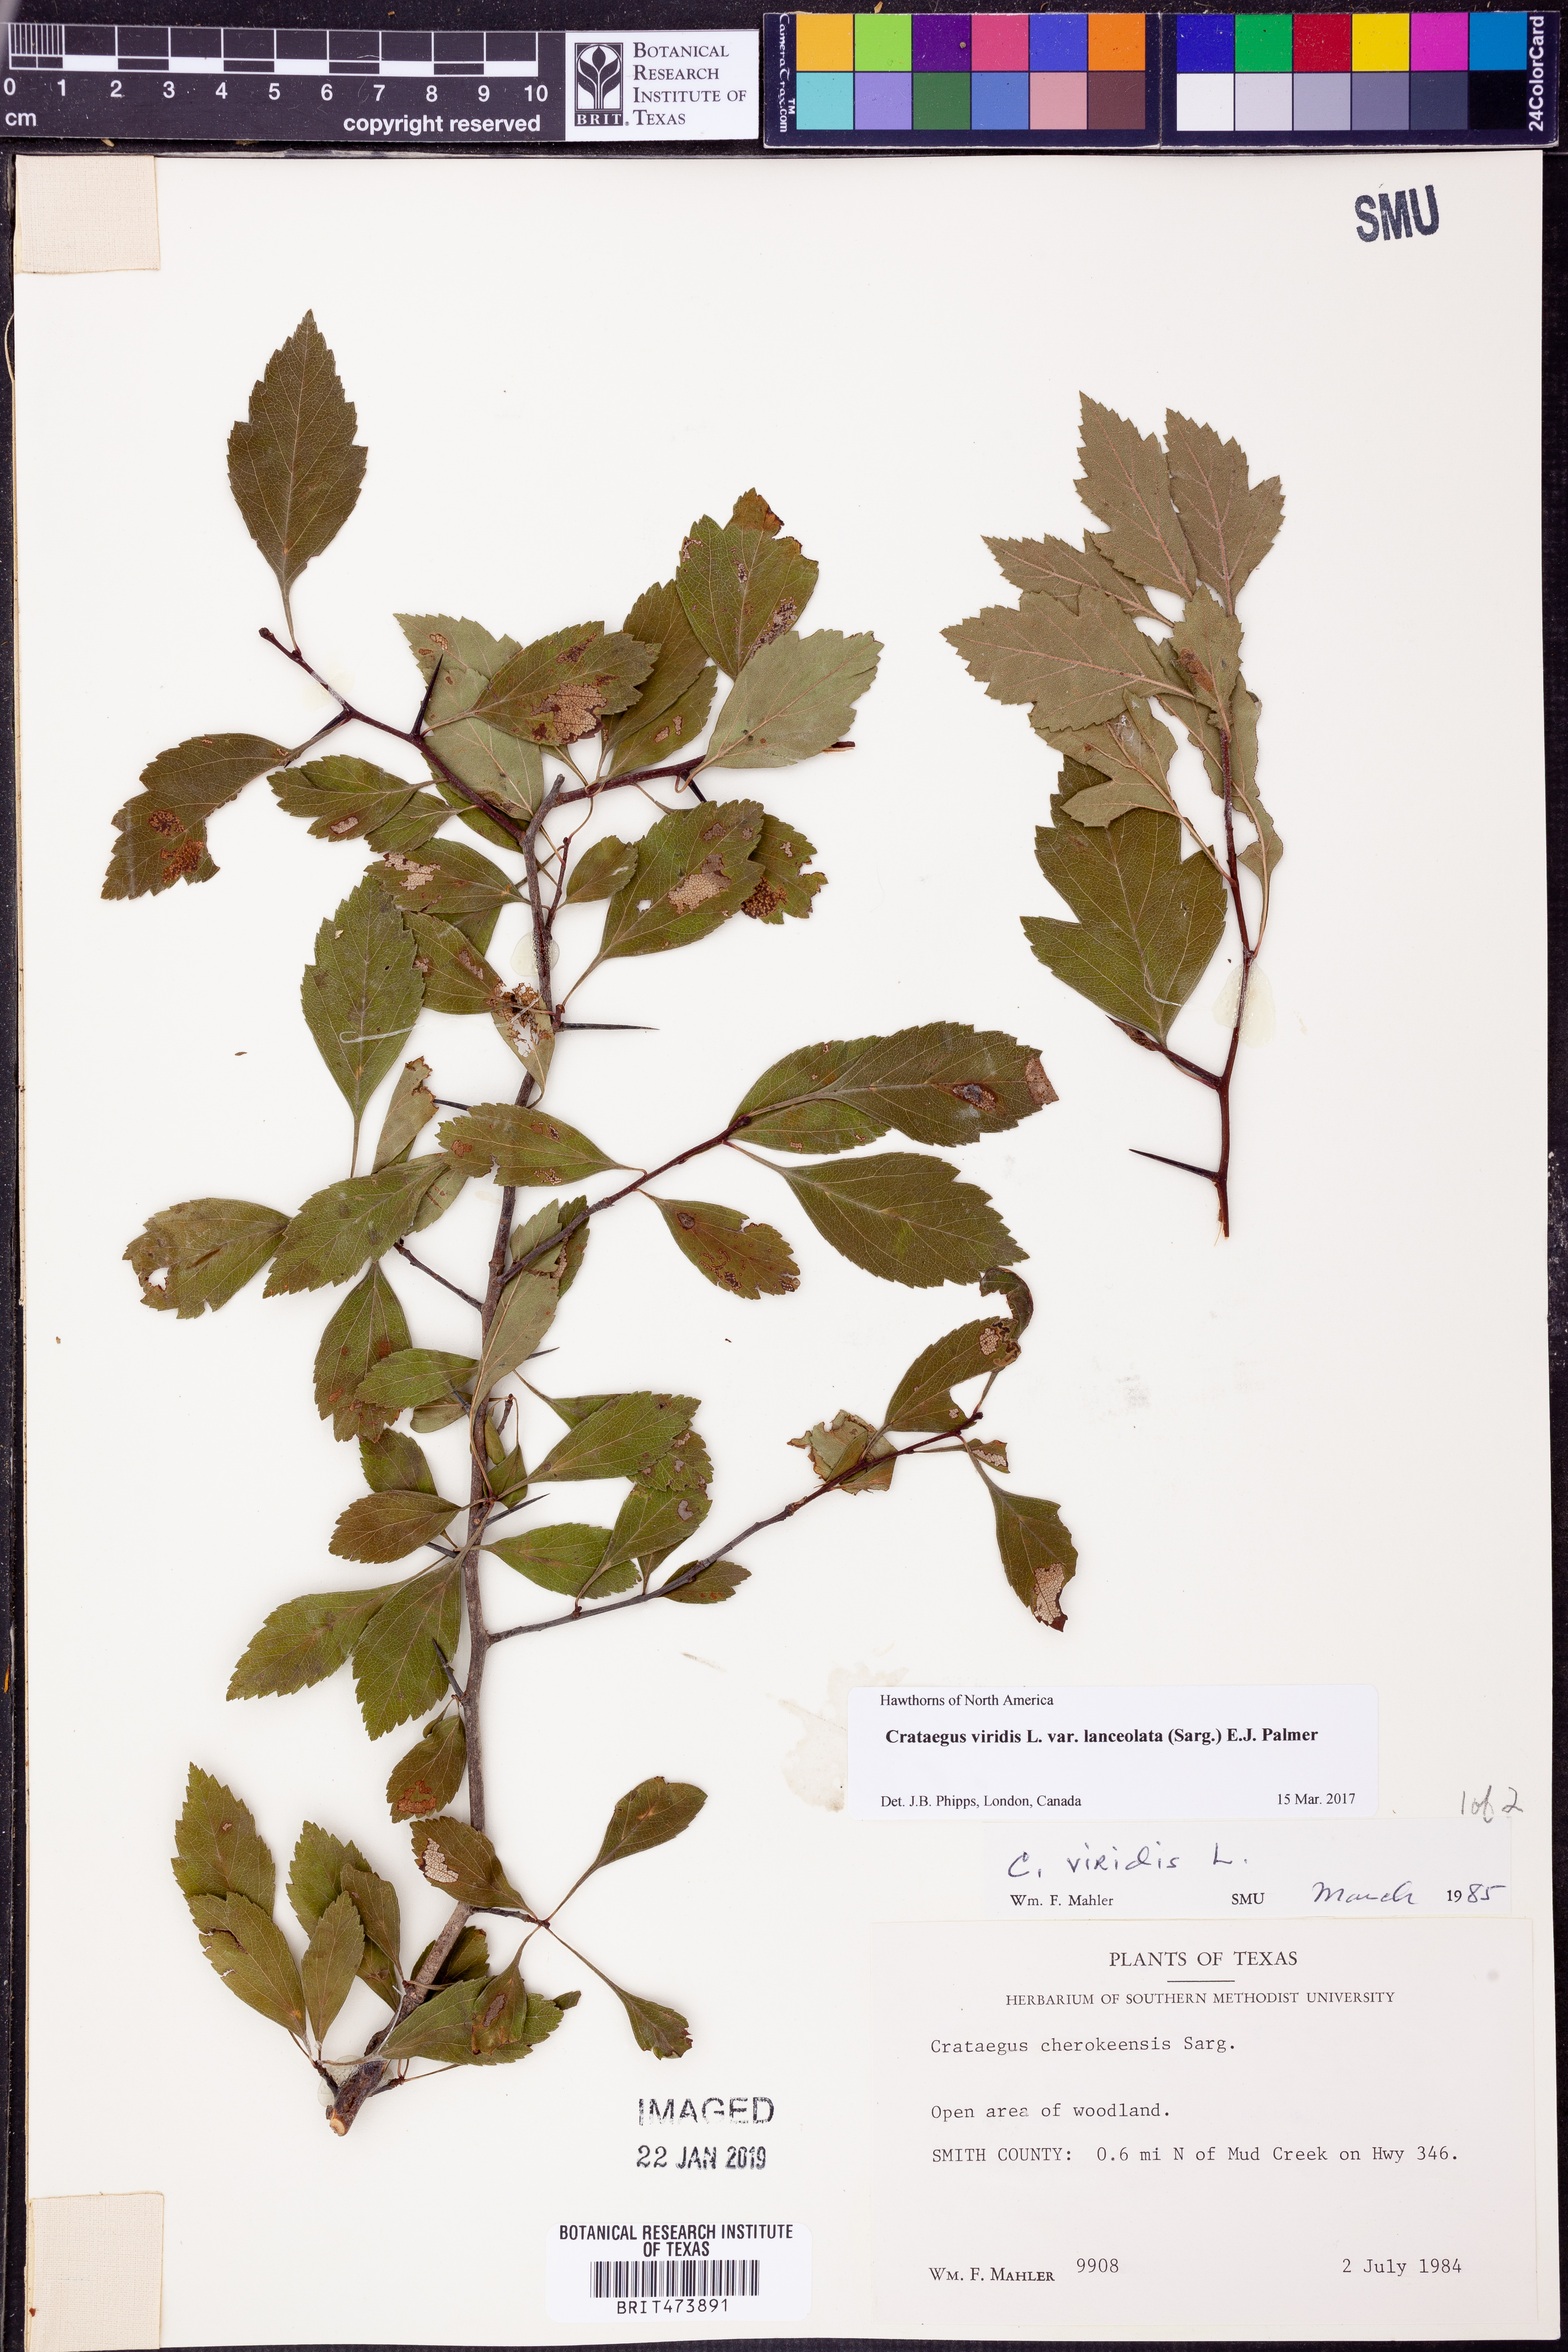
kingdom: Plantae
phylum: Tracheophyta
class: Magnoliopsida
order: Rosales
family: Rosaceae
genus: Crataegus
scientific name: Crataegus viridis
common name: Southernthorn
